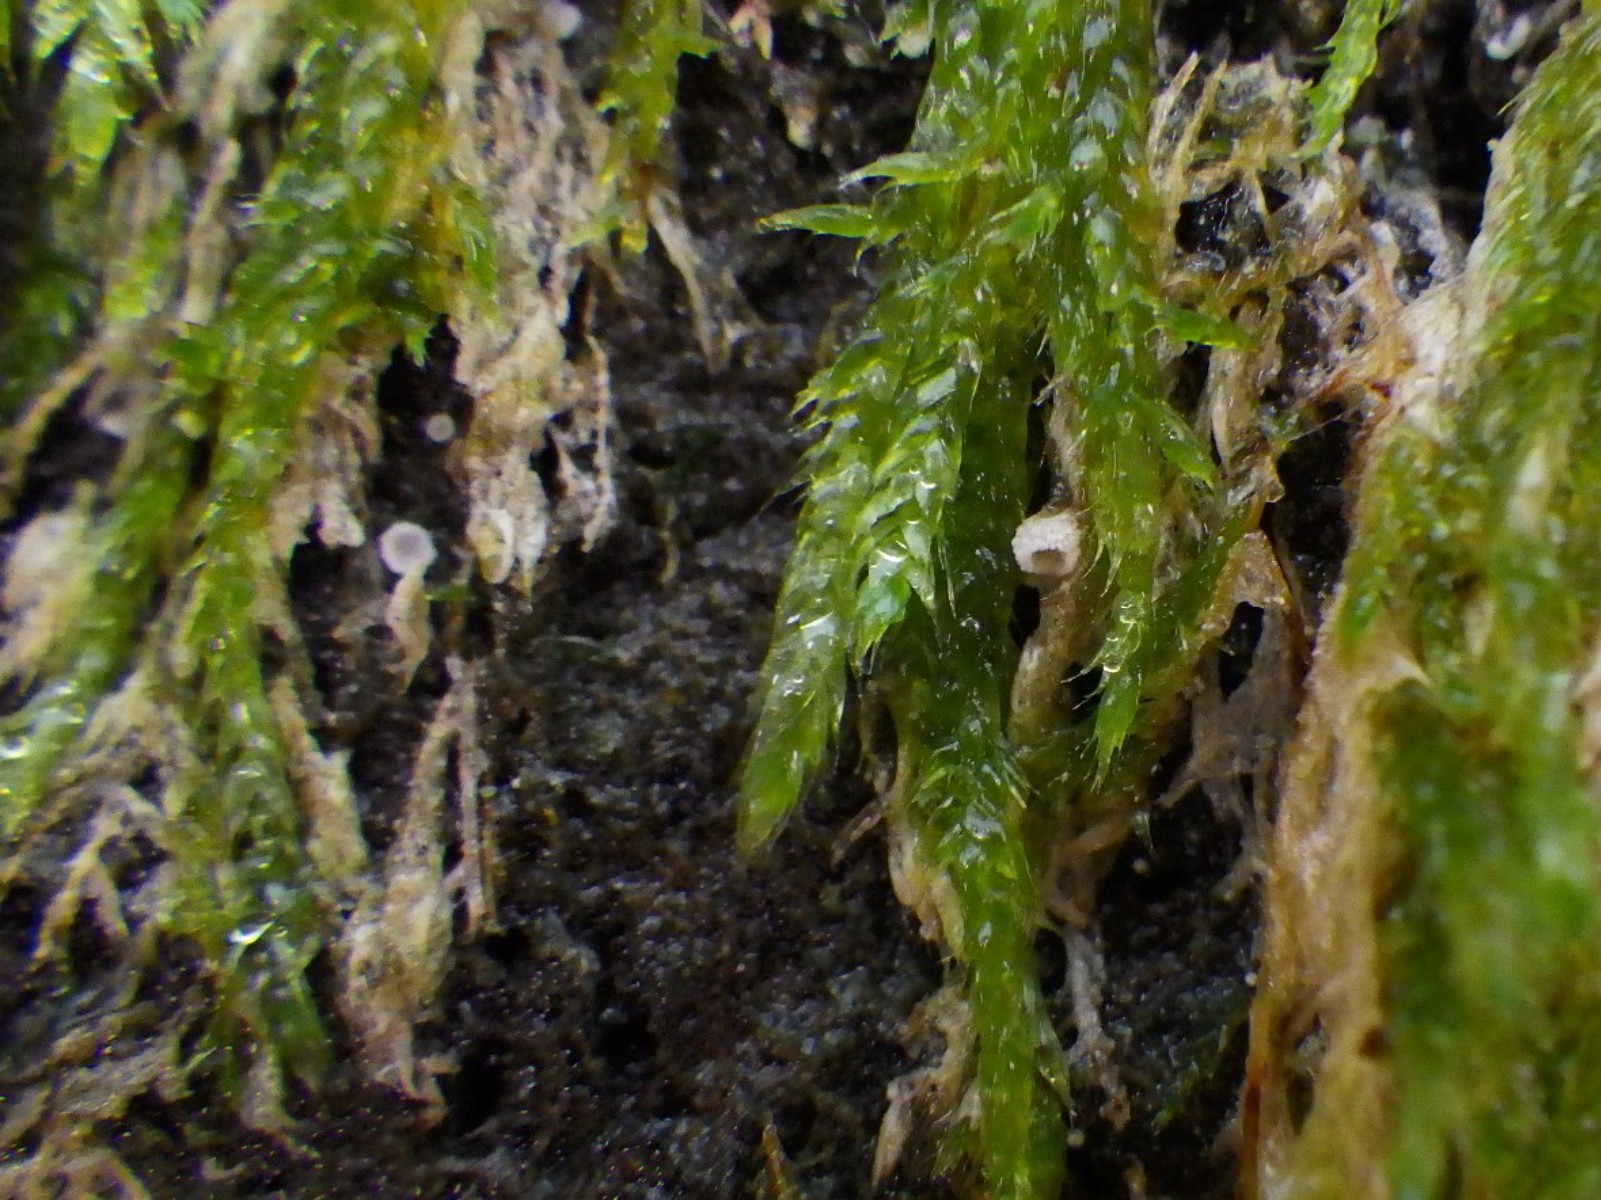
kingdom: Fungi
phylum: Basidiomycota
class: Agaricomycetes
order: Agaricales
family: Chromocyphellaceae
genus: Chromocyphella
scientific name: Chromocyphella muscicola
